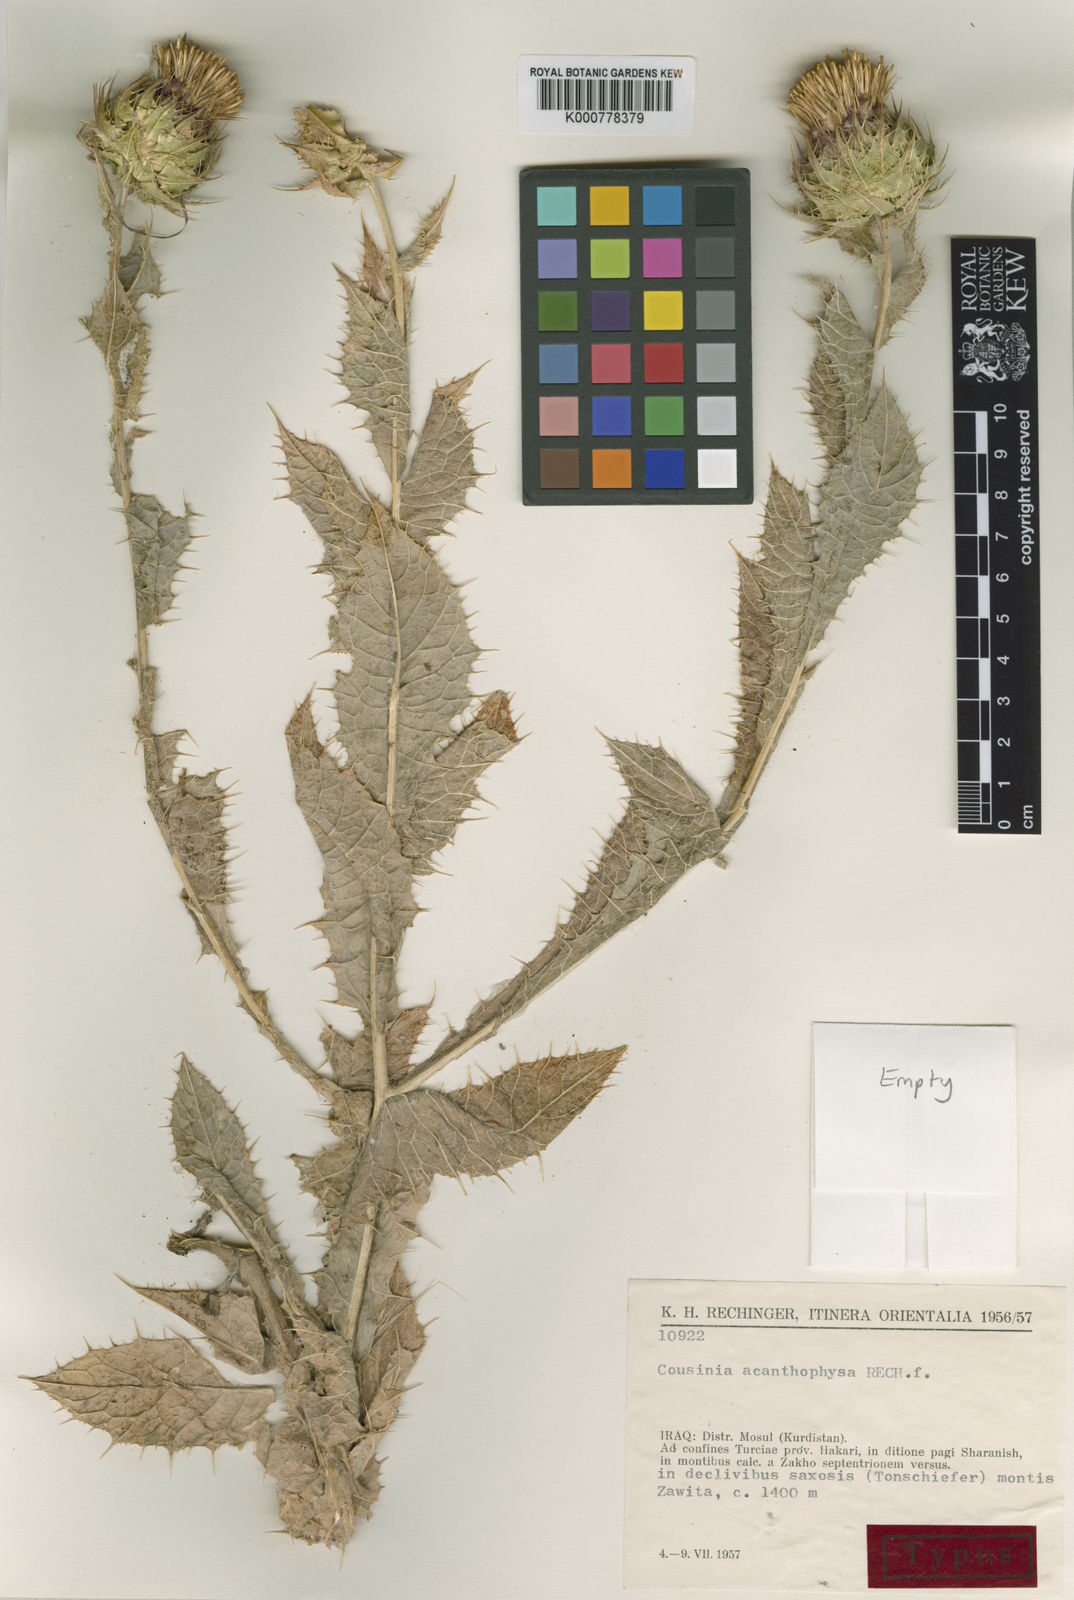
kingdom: Plantae
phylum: Tracheophyta
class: Magnoliopsida
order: Asterales
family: Asteraceae
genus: Cousinia
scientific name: Cousinia odontolepis
